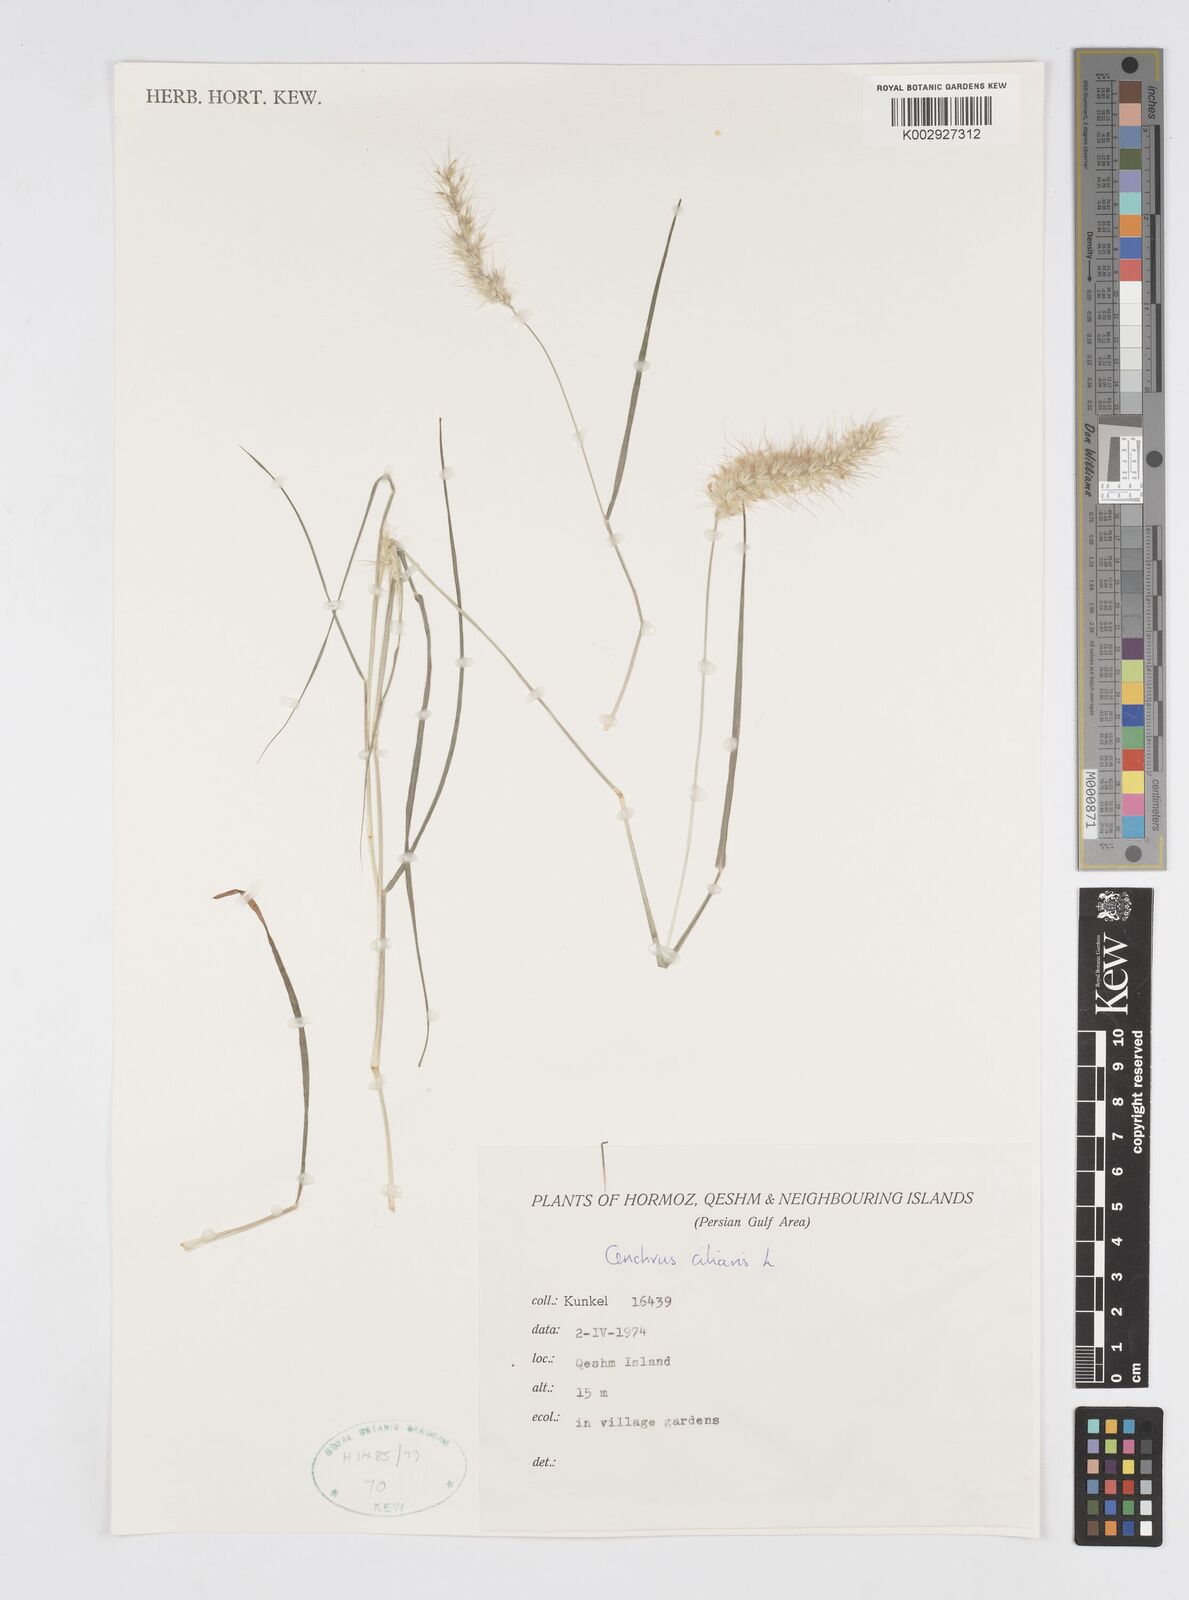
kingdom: Plantae
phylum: Tracheophyta
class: Liliopsida
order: Poales
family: Poaceae
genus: Cenchrus
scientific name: Cenchrus ciliaris
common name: Buffelgrass
